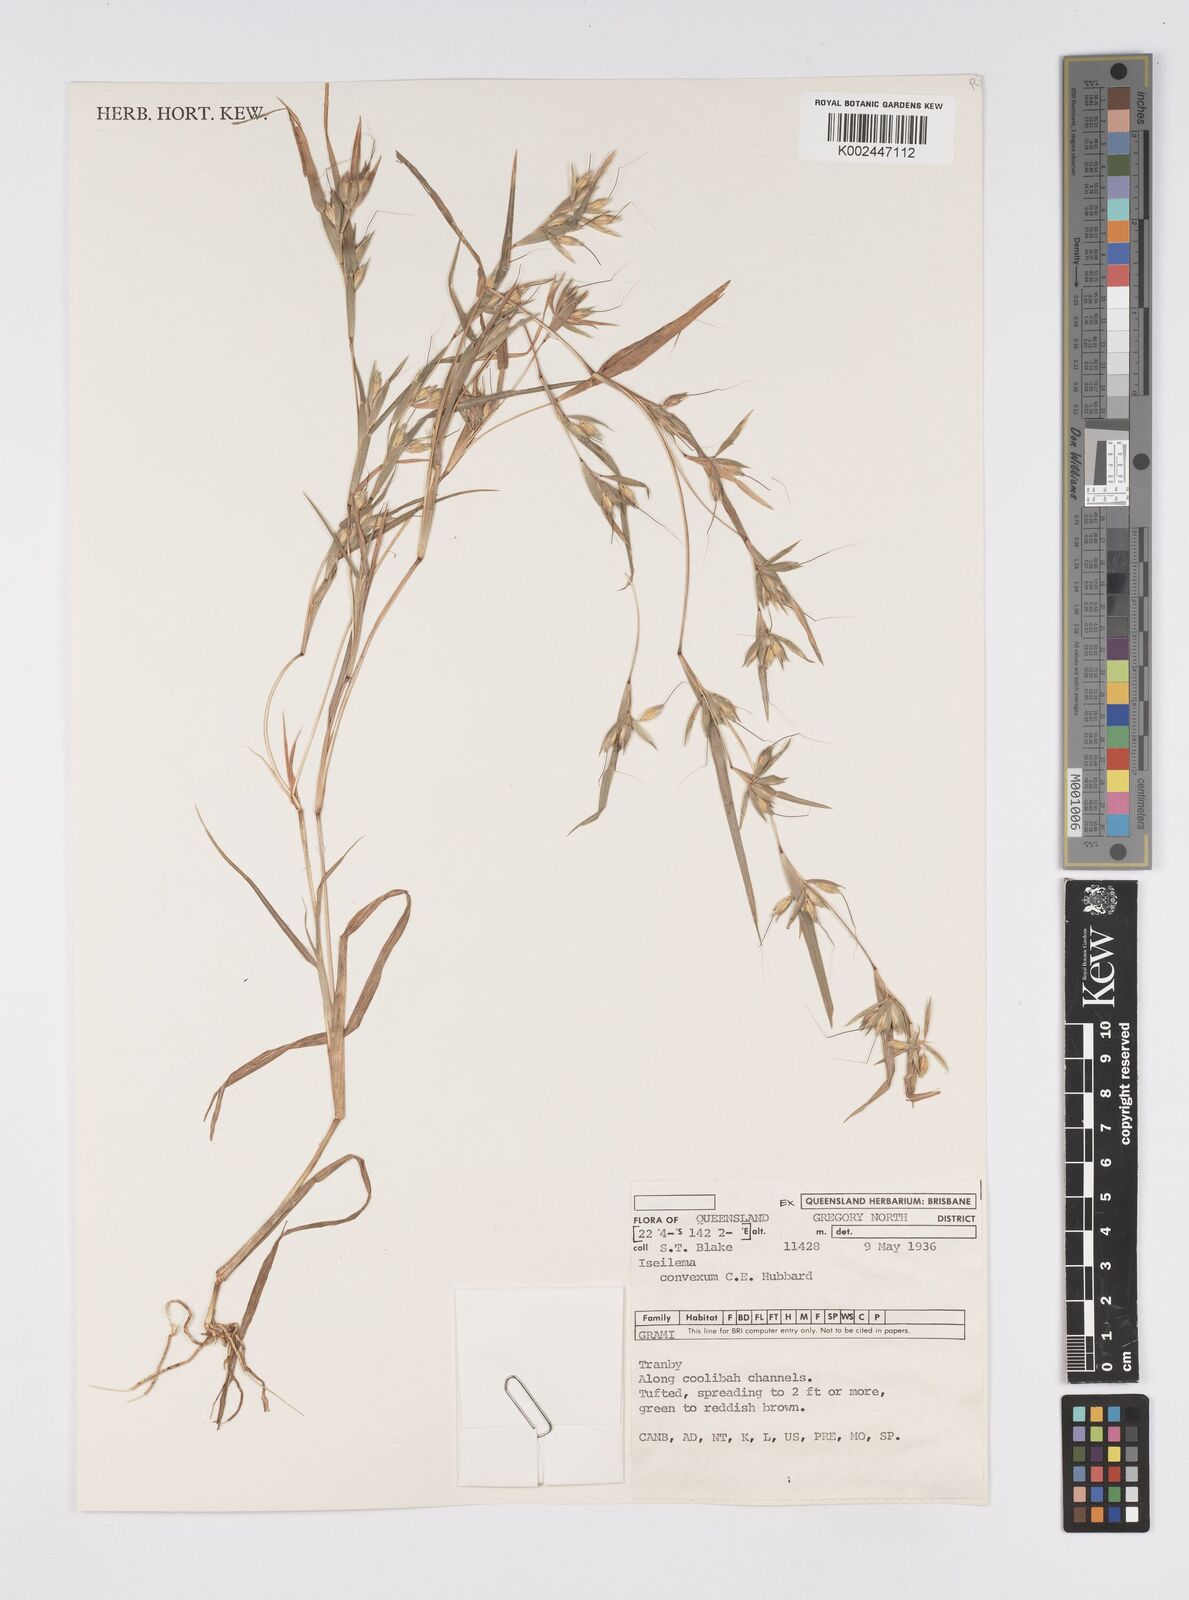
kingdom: Plantae
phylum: Tracheophyta
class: Liliopsida
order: Poales
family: Poaceae
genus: Iseilema
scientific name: Iseilema convexum
